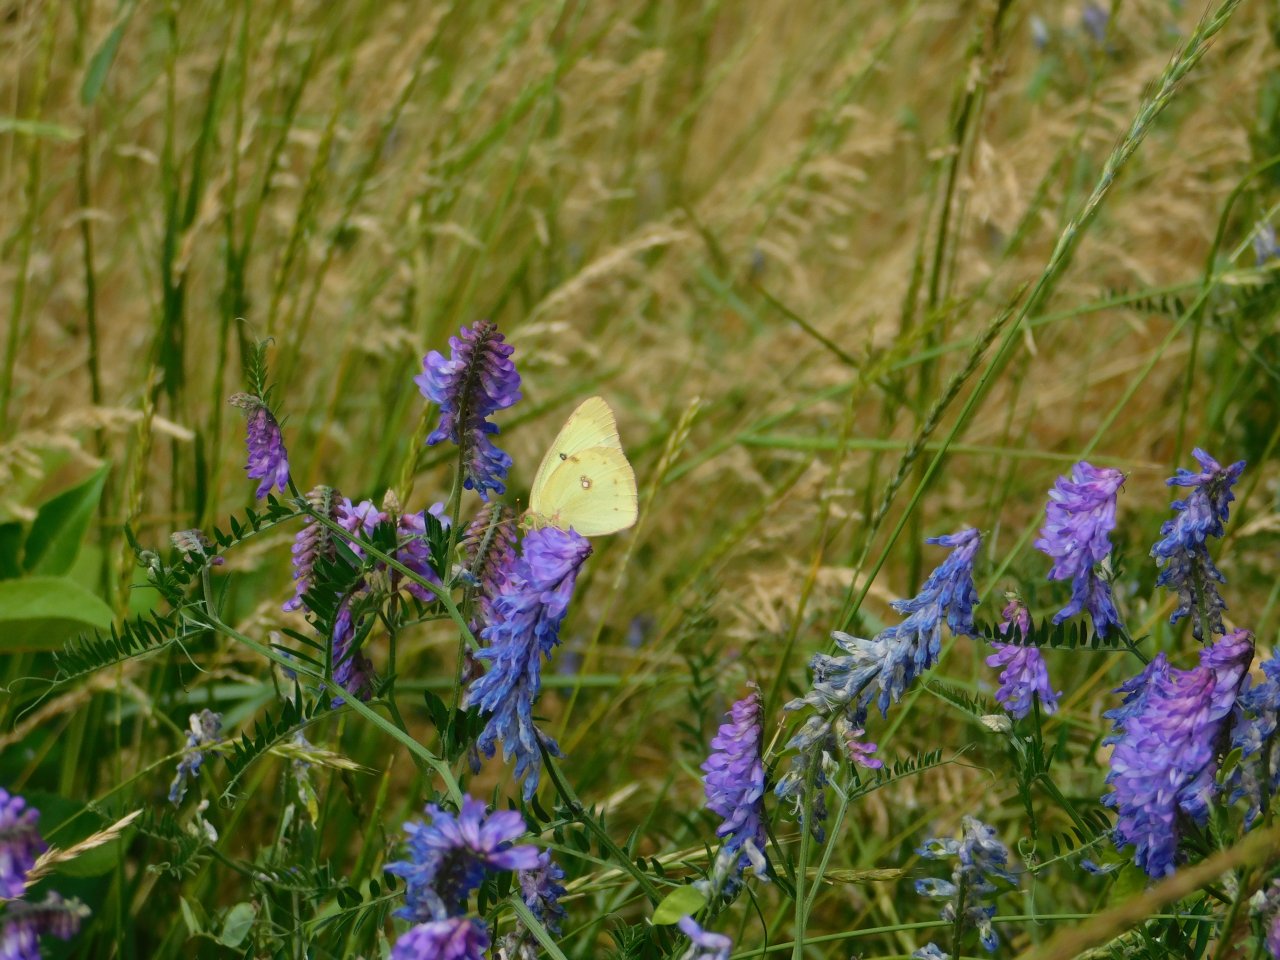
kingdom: Animalia
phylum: Arthropoda
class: Insecta
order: Lepidoptera
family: Pieridae
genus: Colias
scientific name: Colias philodice
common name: Clouded Sulphur
